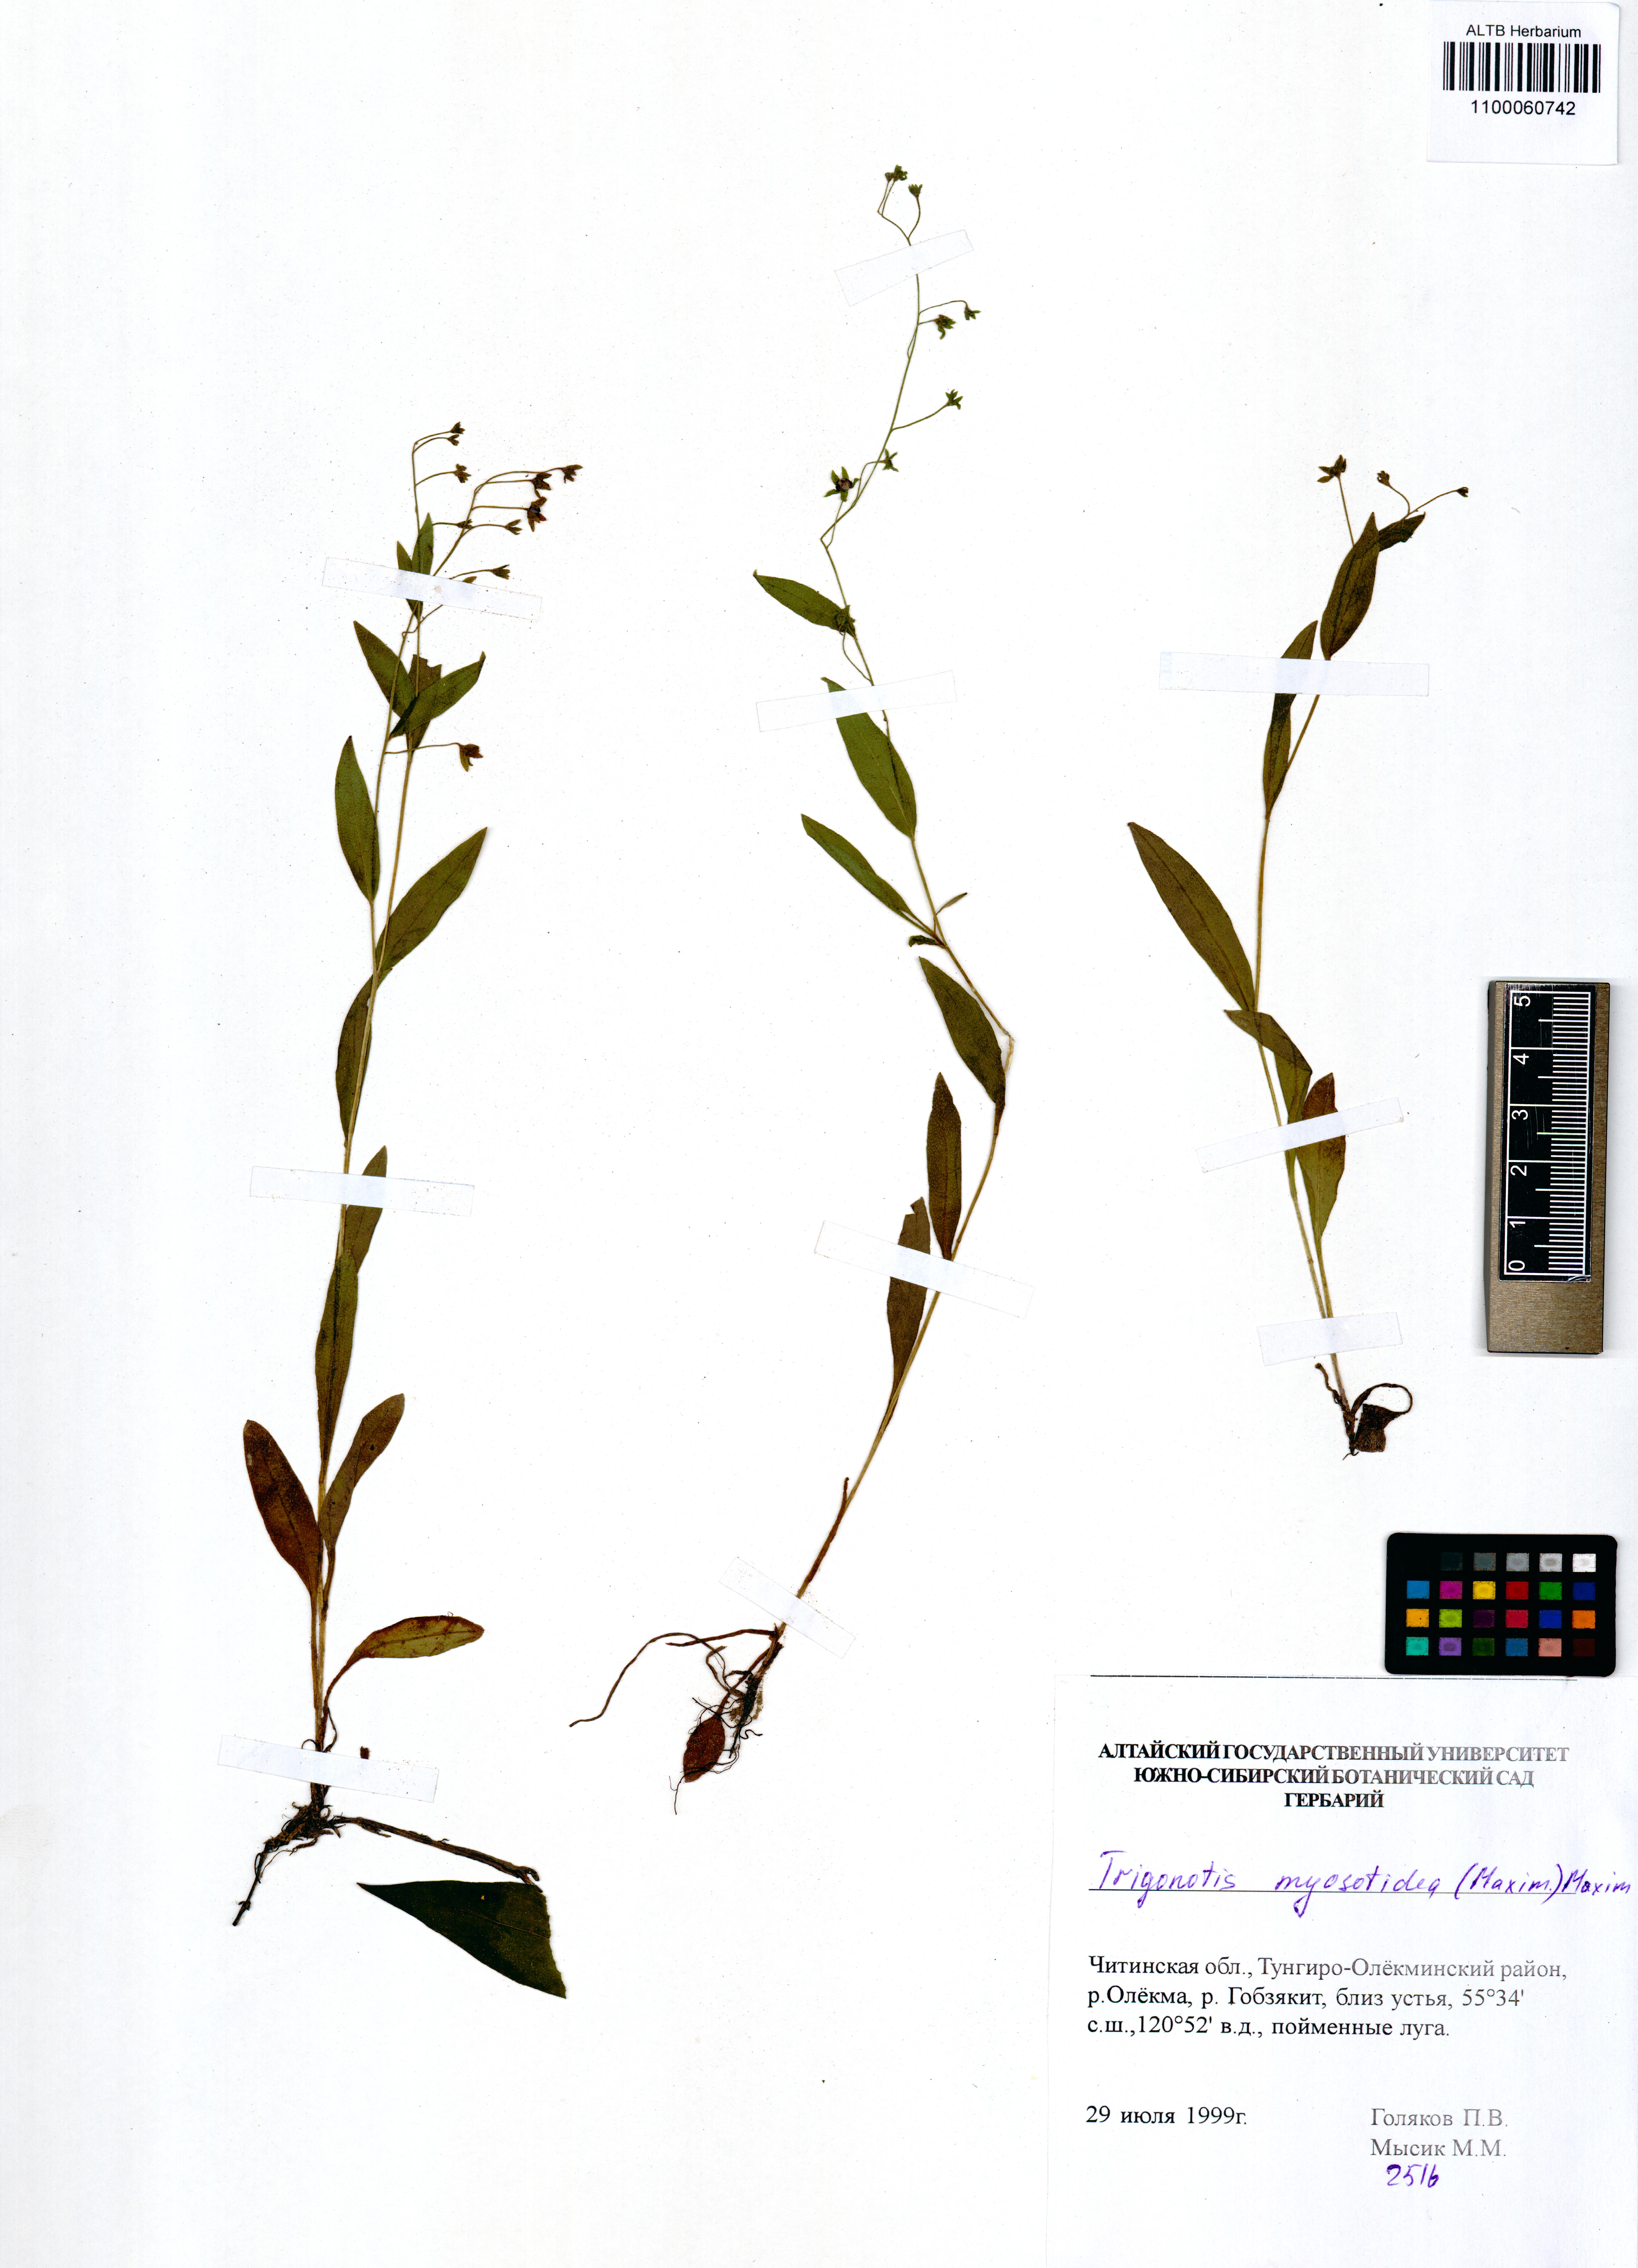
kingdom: Plantae
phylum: Tracheophyta
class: Magnoliopsida
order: Boraginales
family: Boraginaceae
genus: Trigonotis
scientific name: Trigonotis myosotidea
